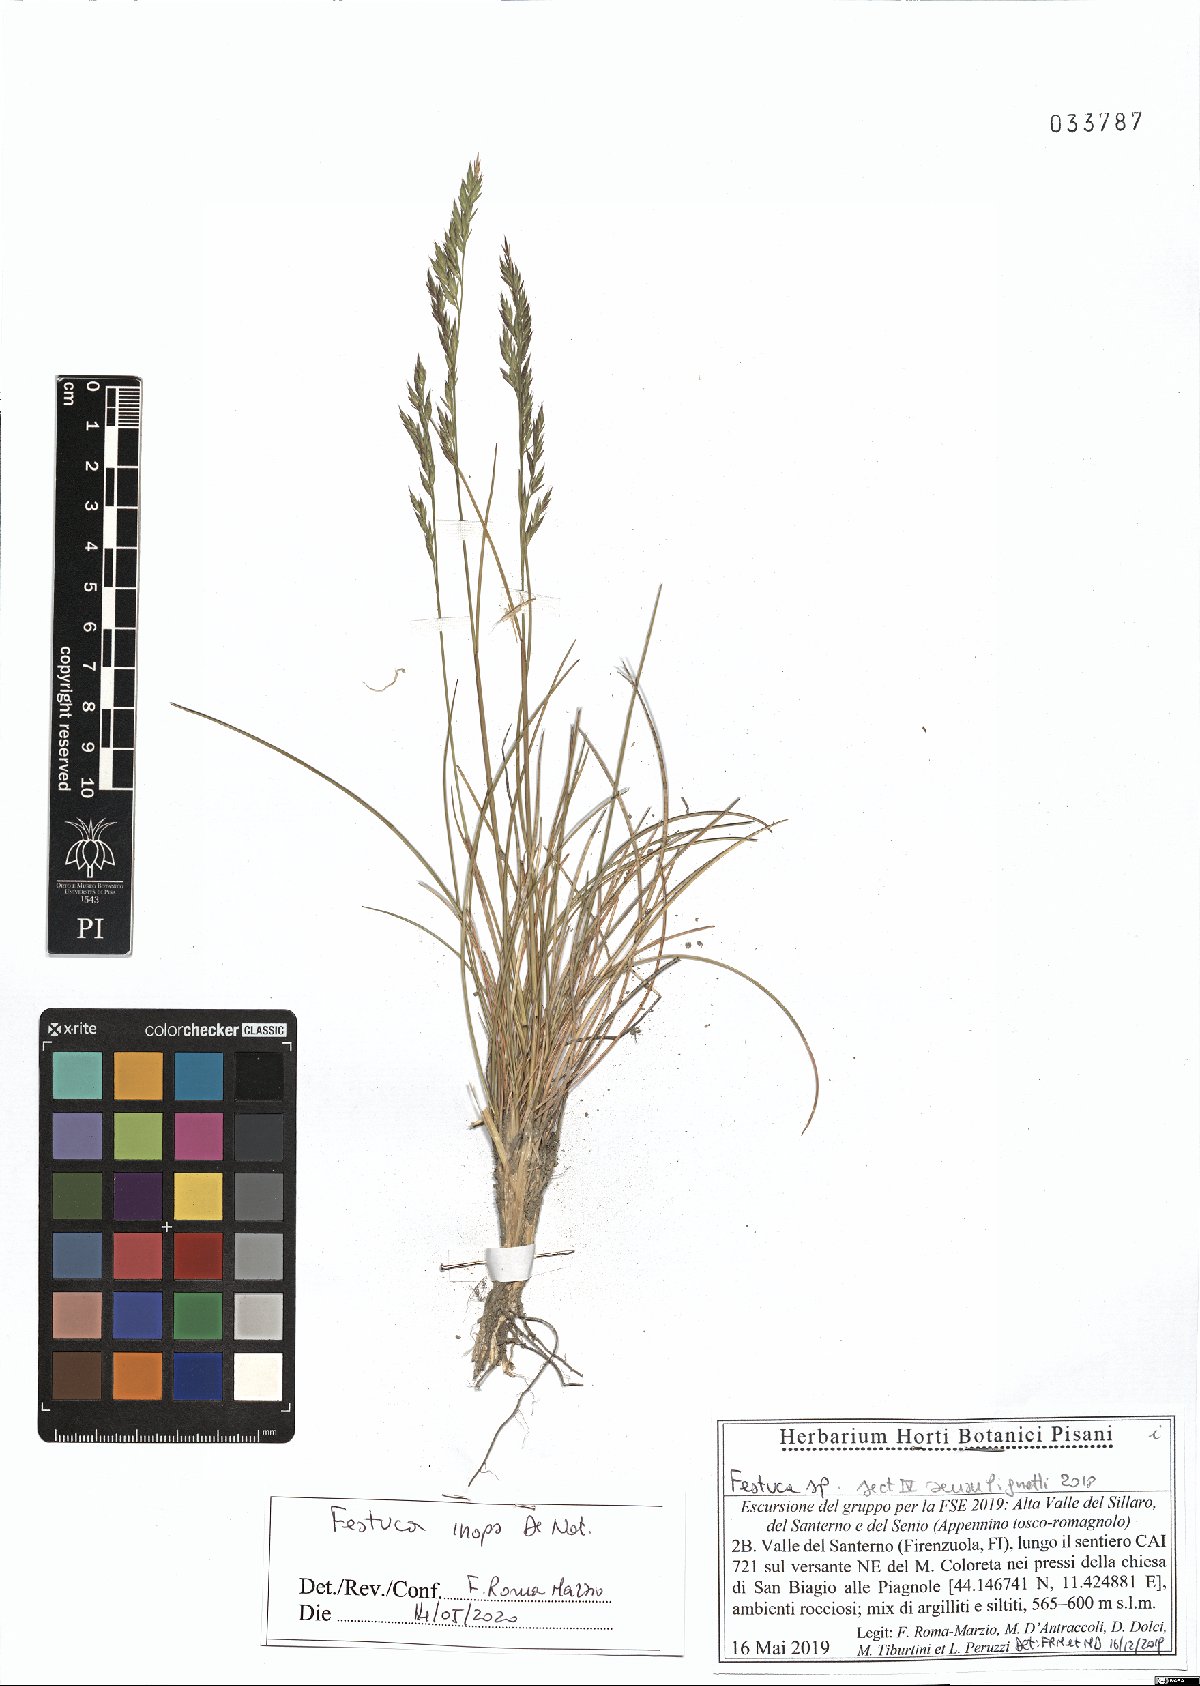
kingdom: Plantae
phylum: Tracheophyta
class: Liliopsida
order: Poales
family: Poaceae
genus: Festuca
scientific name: Festuca inops
